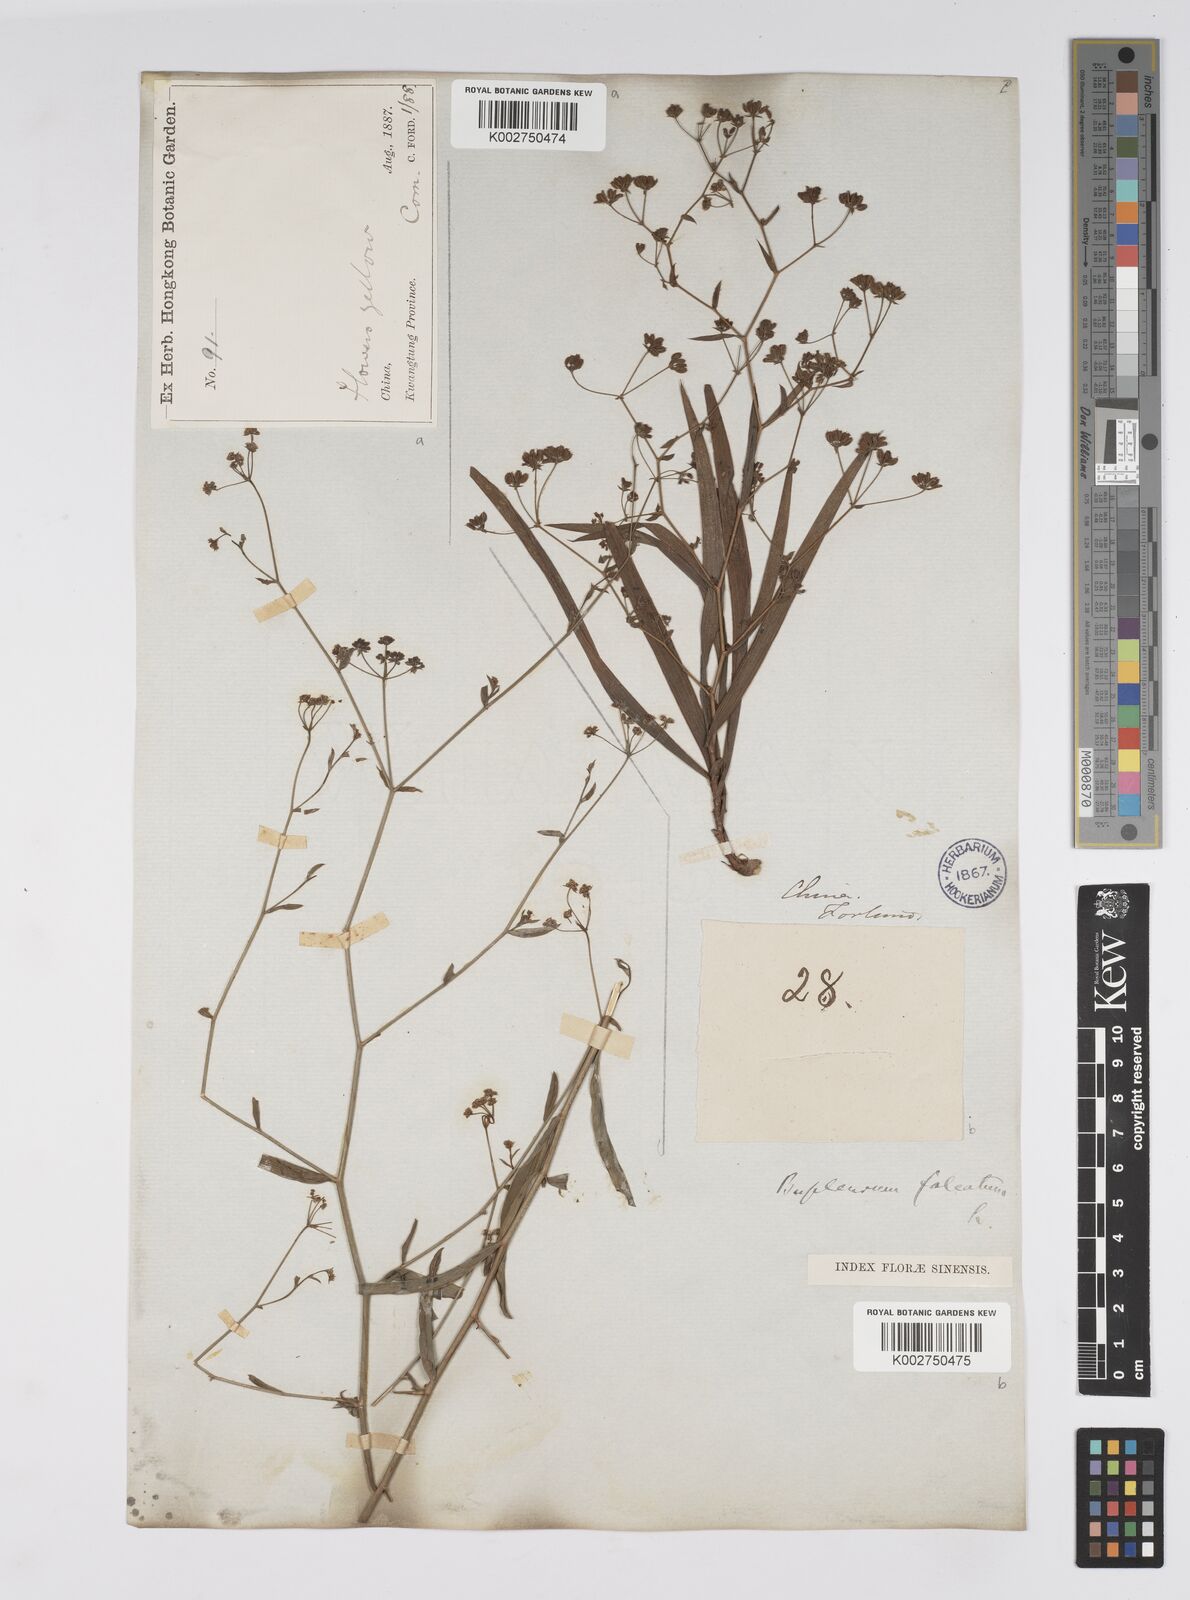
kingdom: Plantae
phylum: Tracheophyta
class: Magnoliopsida
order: Apiales
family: Apiaceae
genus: Bupleurum
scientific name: Bupleurum krylovianum
